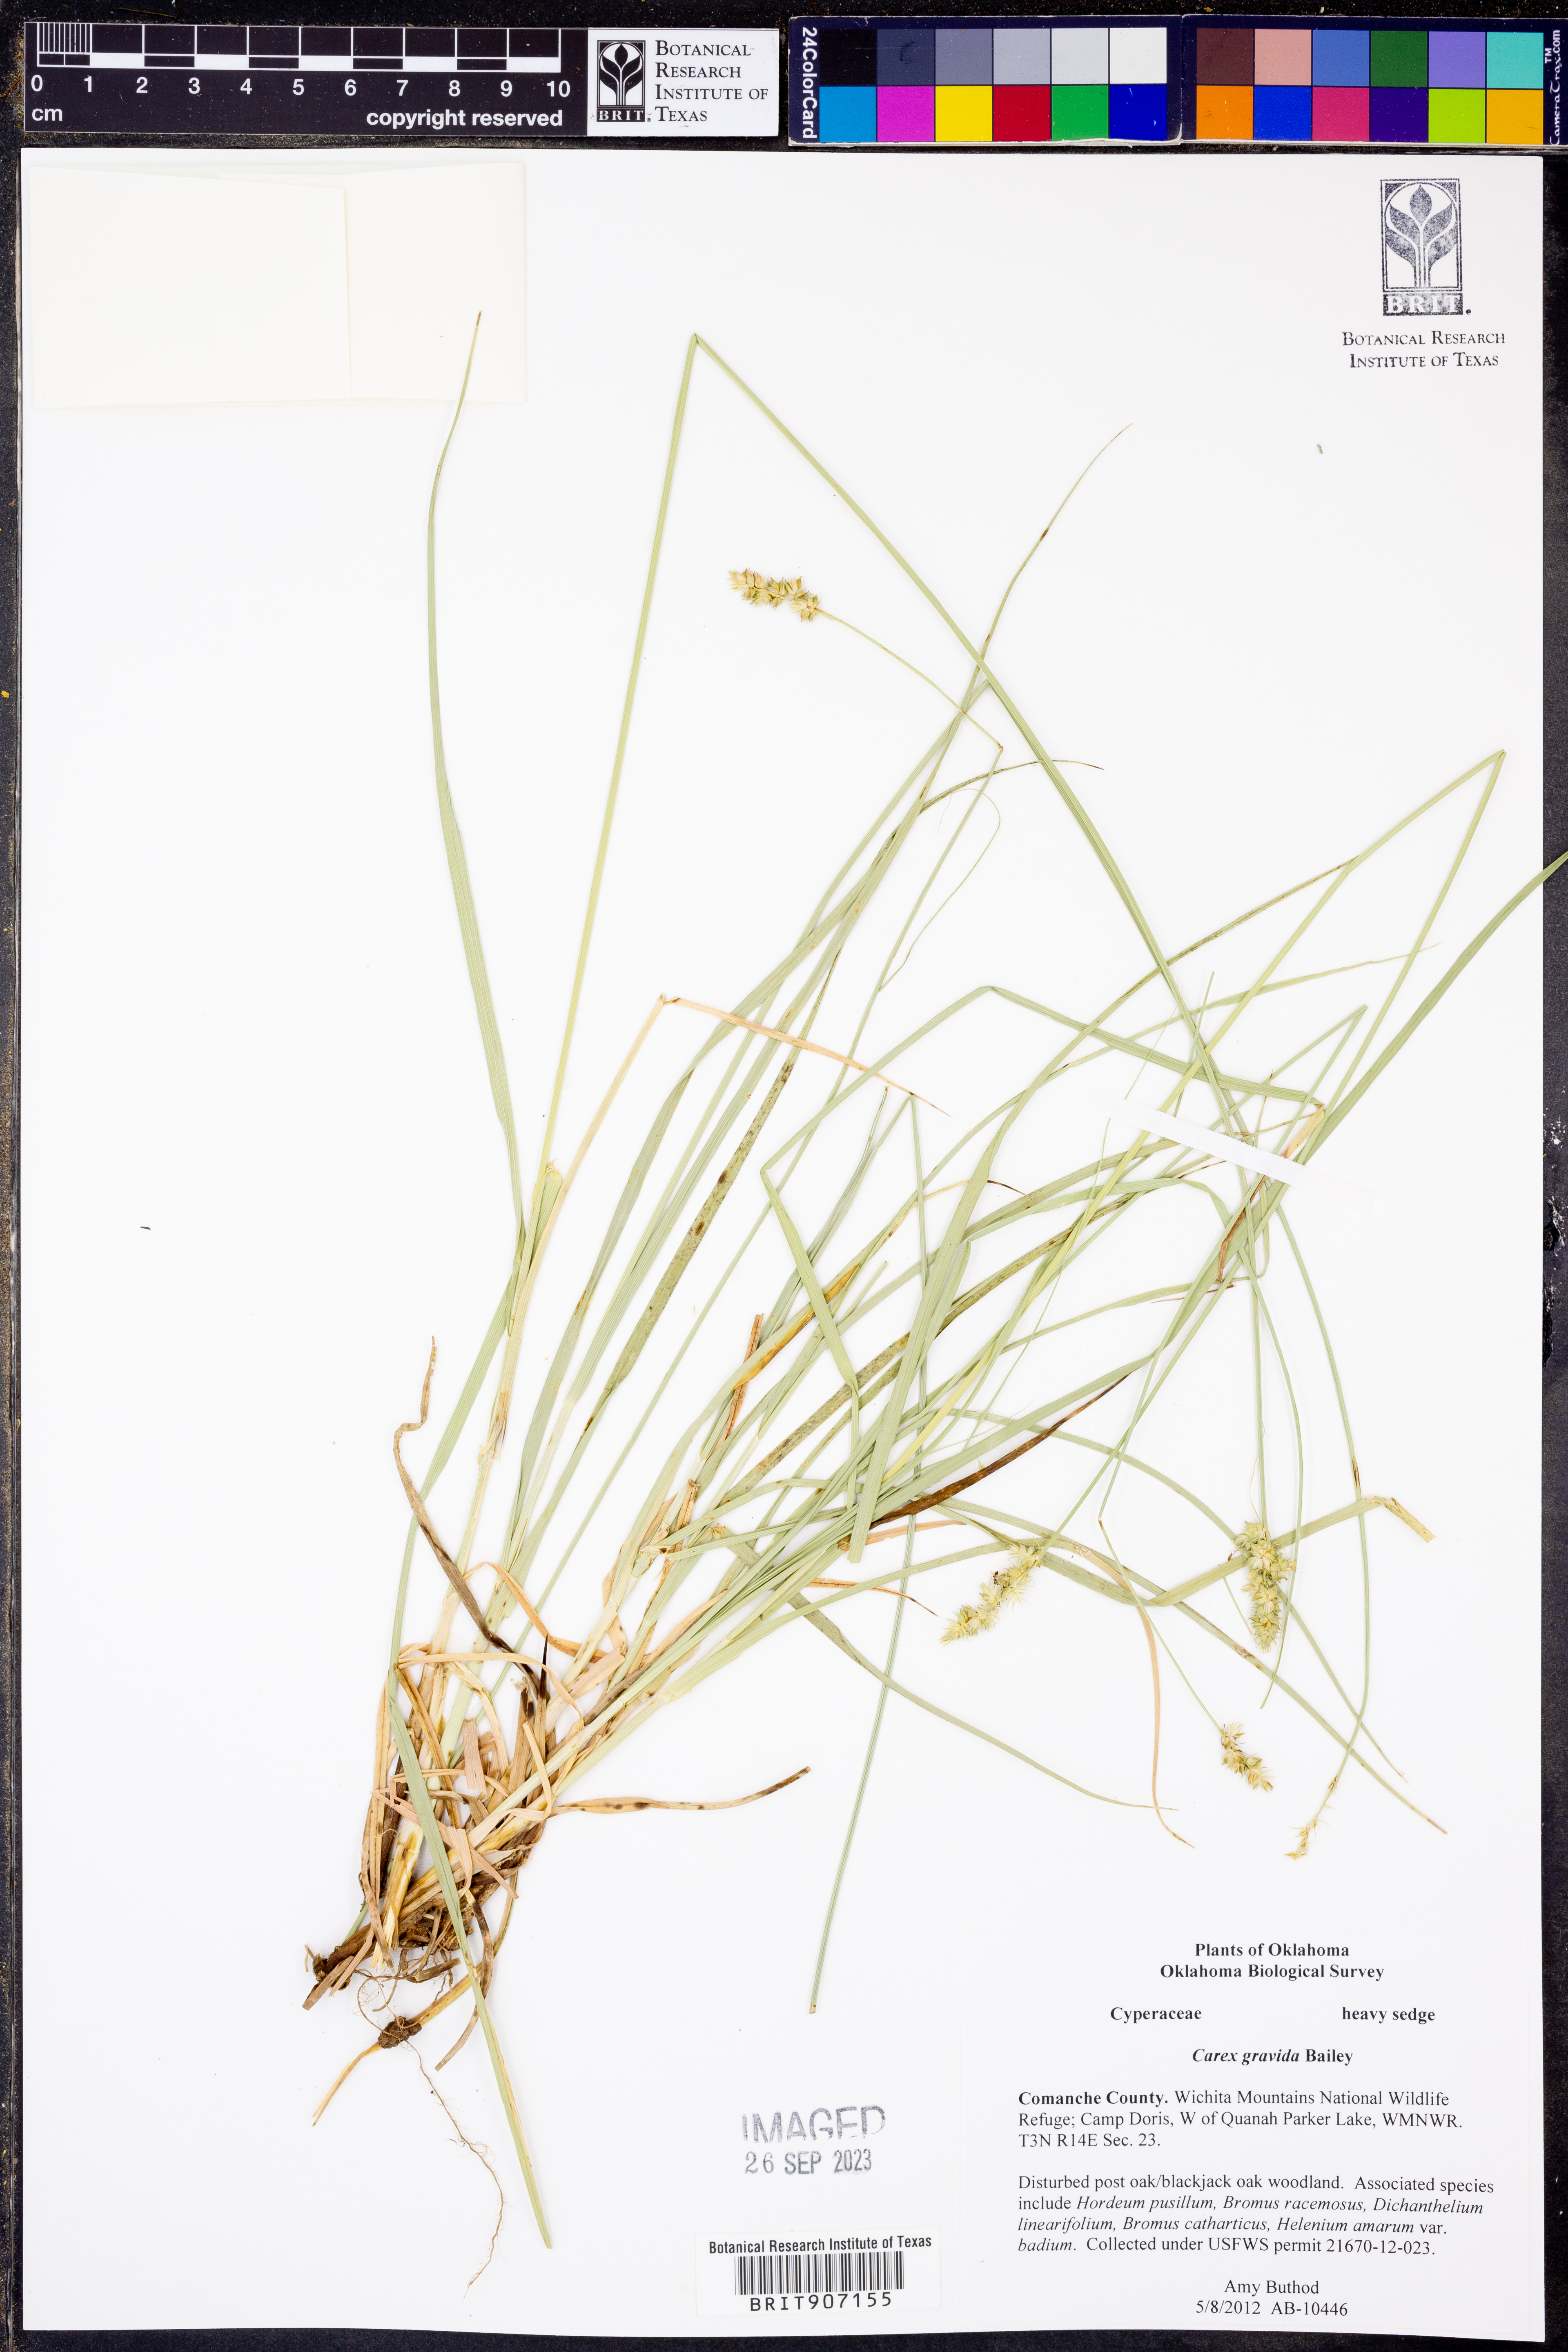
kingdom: Plantae
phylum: Tracheophyta
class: Liliopsida
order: Poales
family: Cyperaceae
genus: Carex
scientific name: Carex gravida
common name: Heavy sedge
